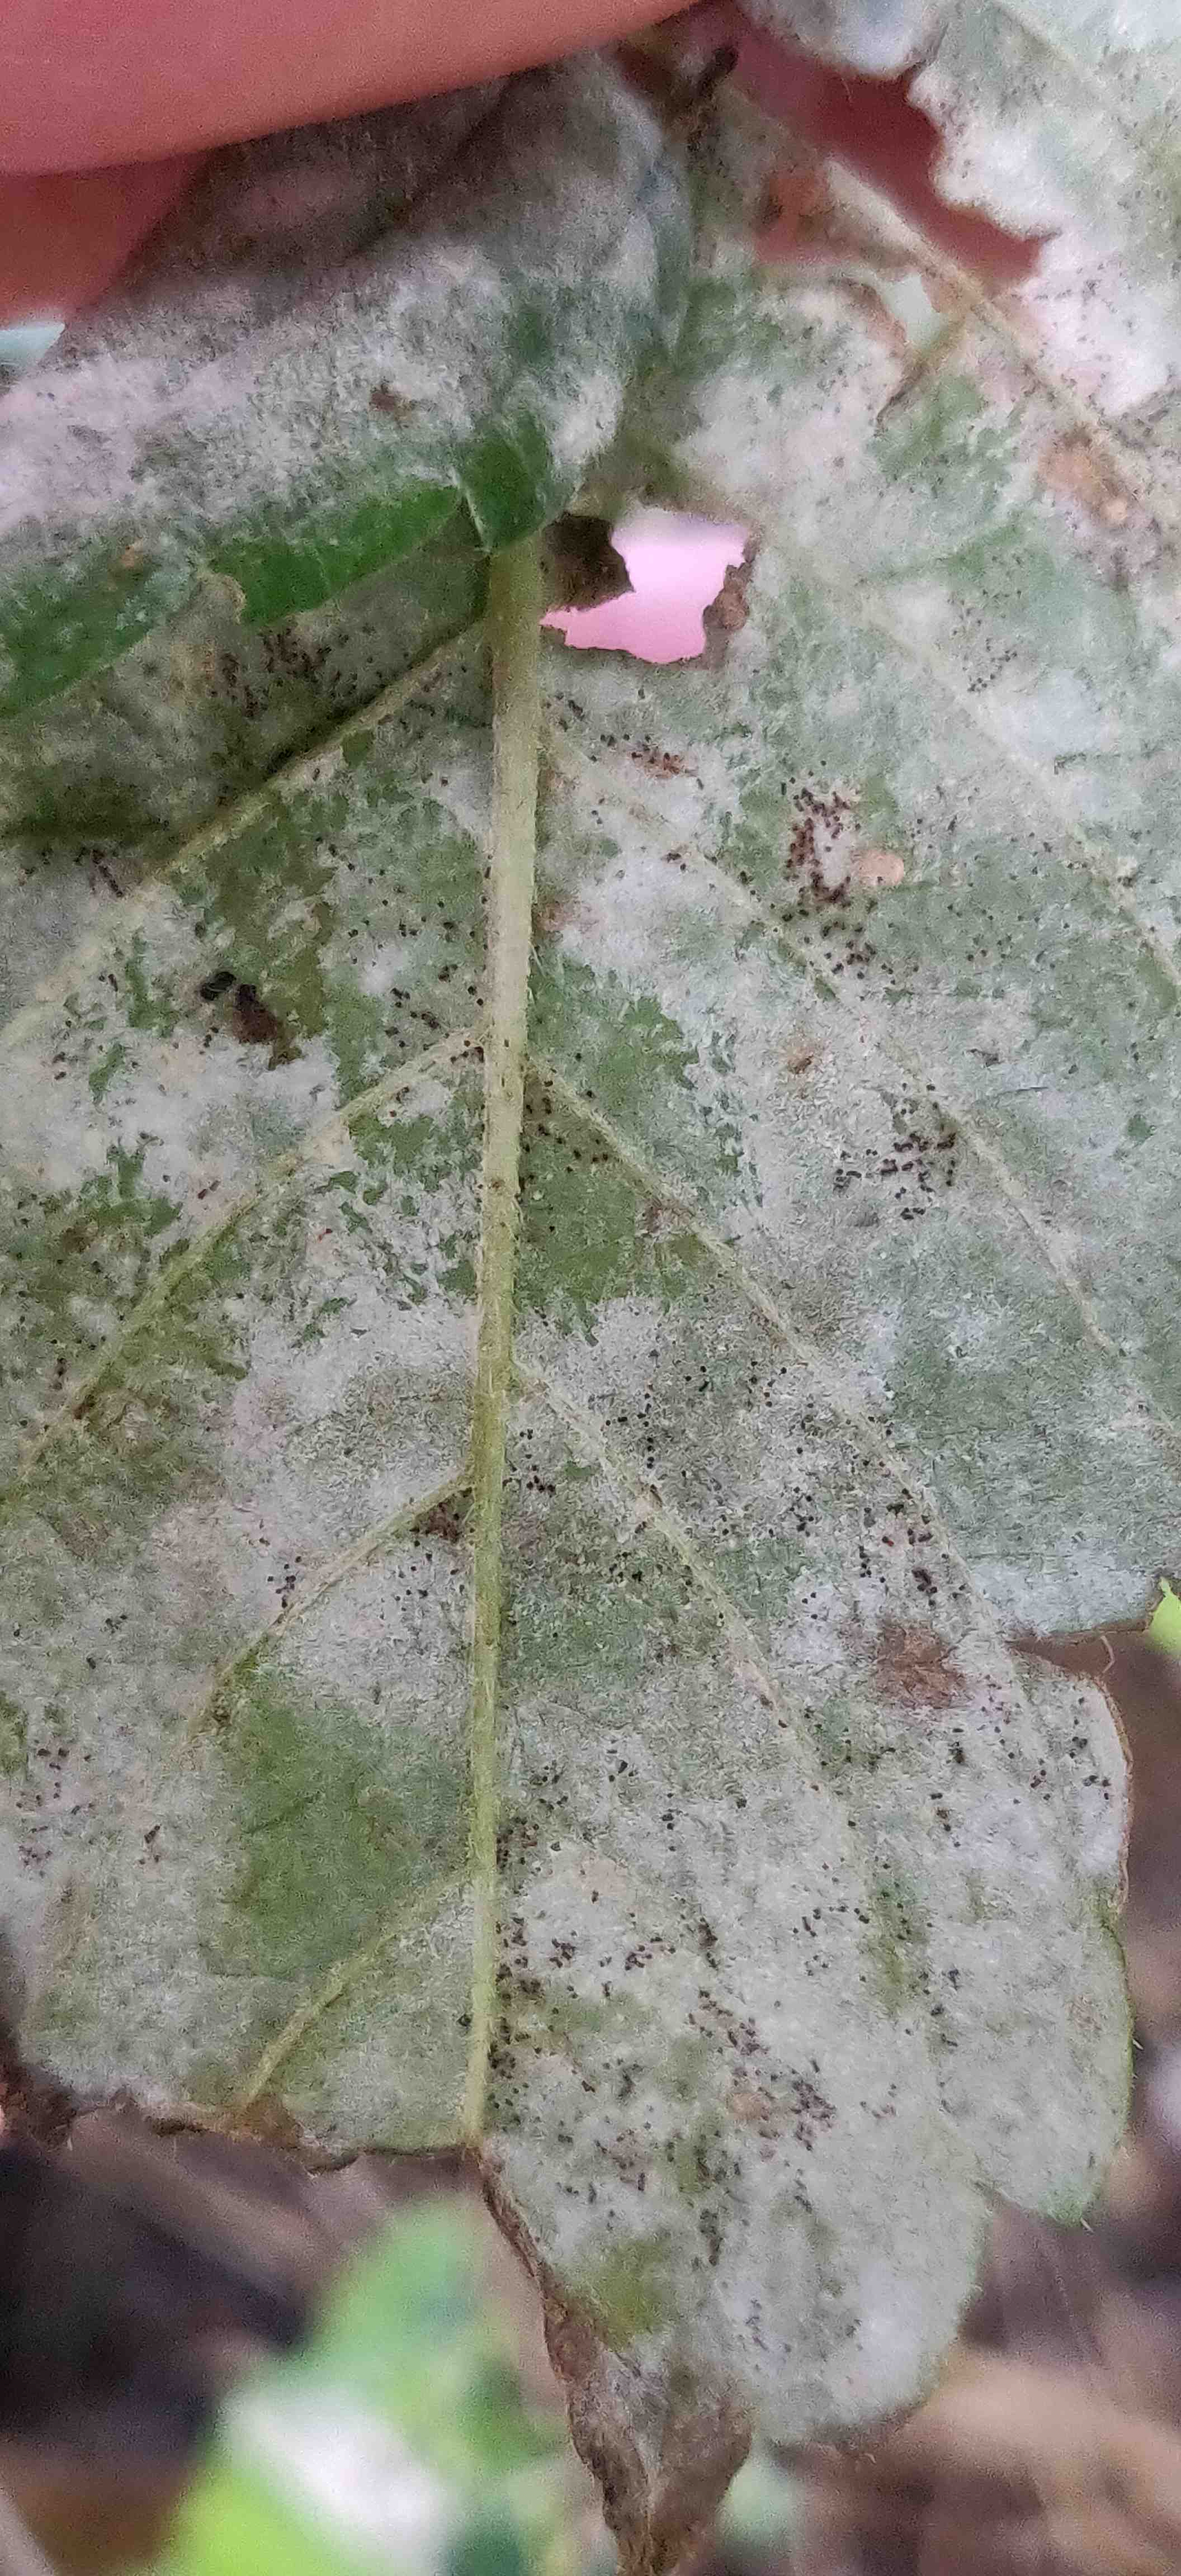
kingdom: Fungi
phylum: Ascomycota
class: Leotiomycetes
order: Helotiales
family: Erysiphaceae
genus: Neoerysiphe
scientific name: Neoerysiphe galeopsidis
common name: Mint mildew
